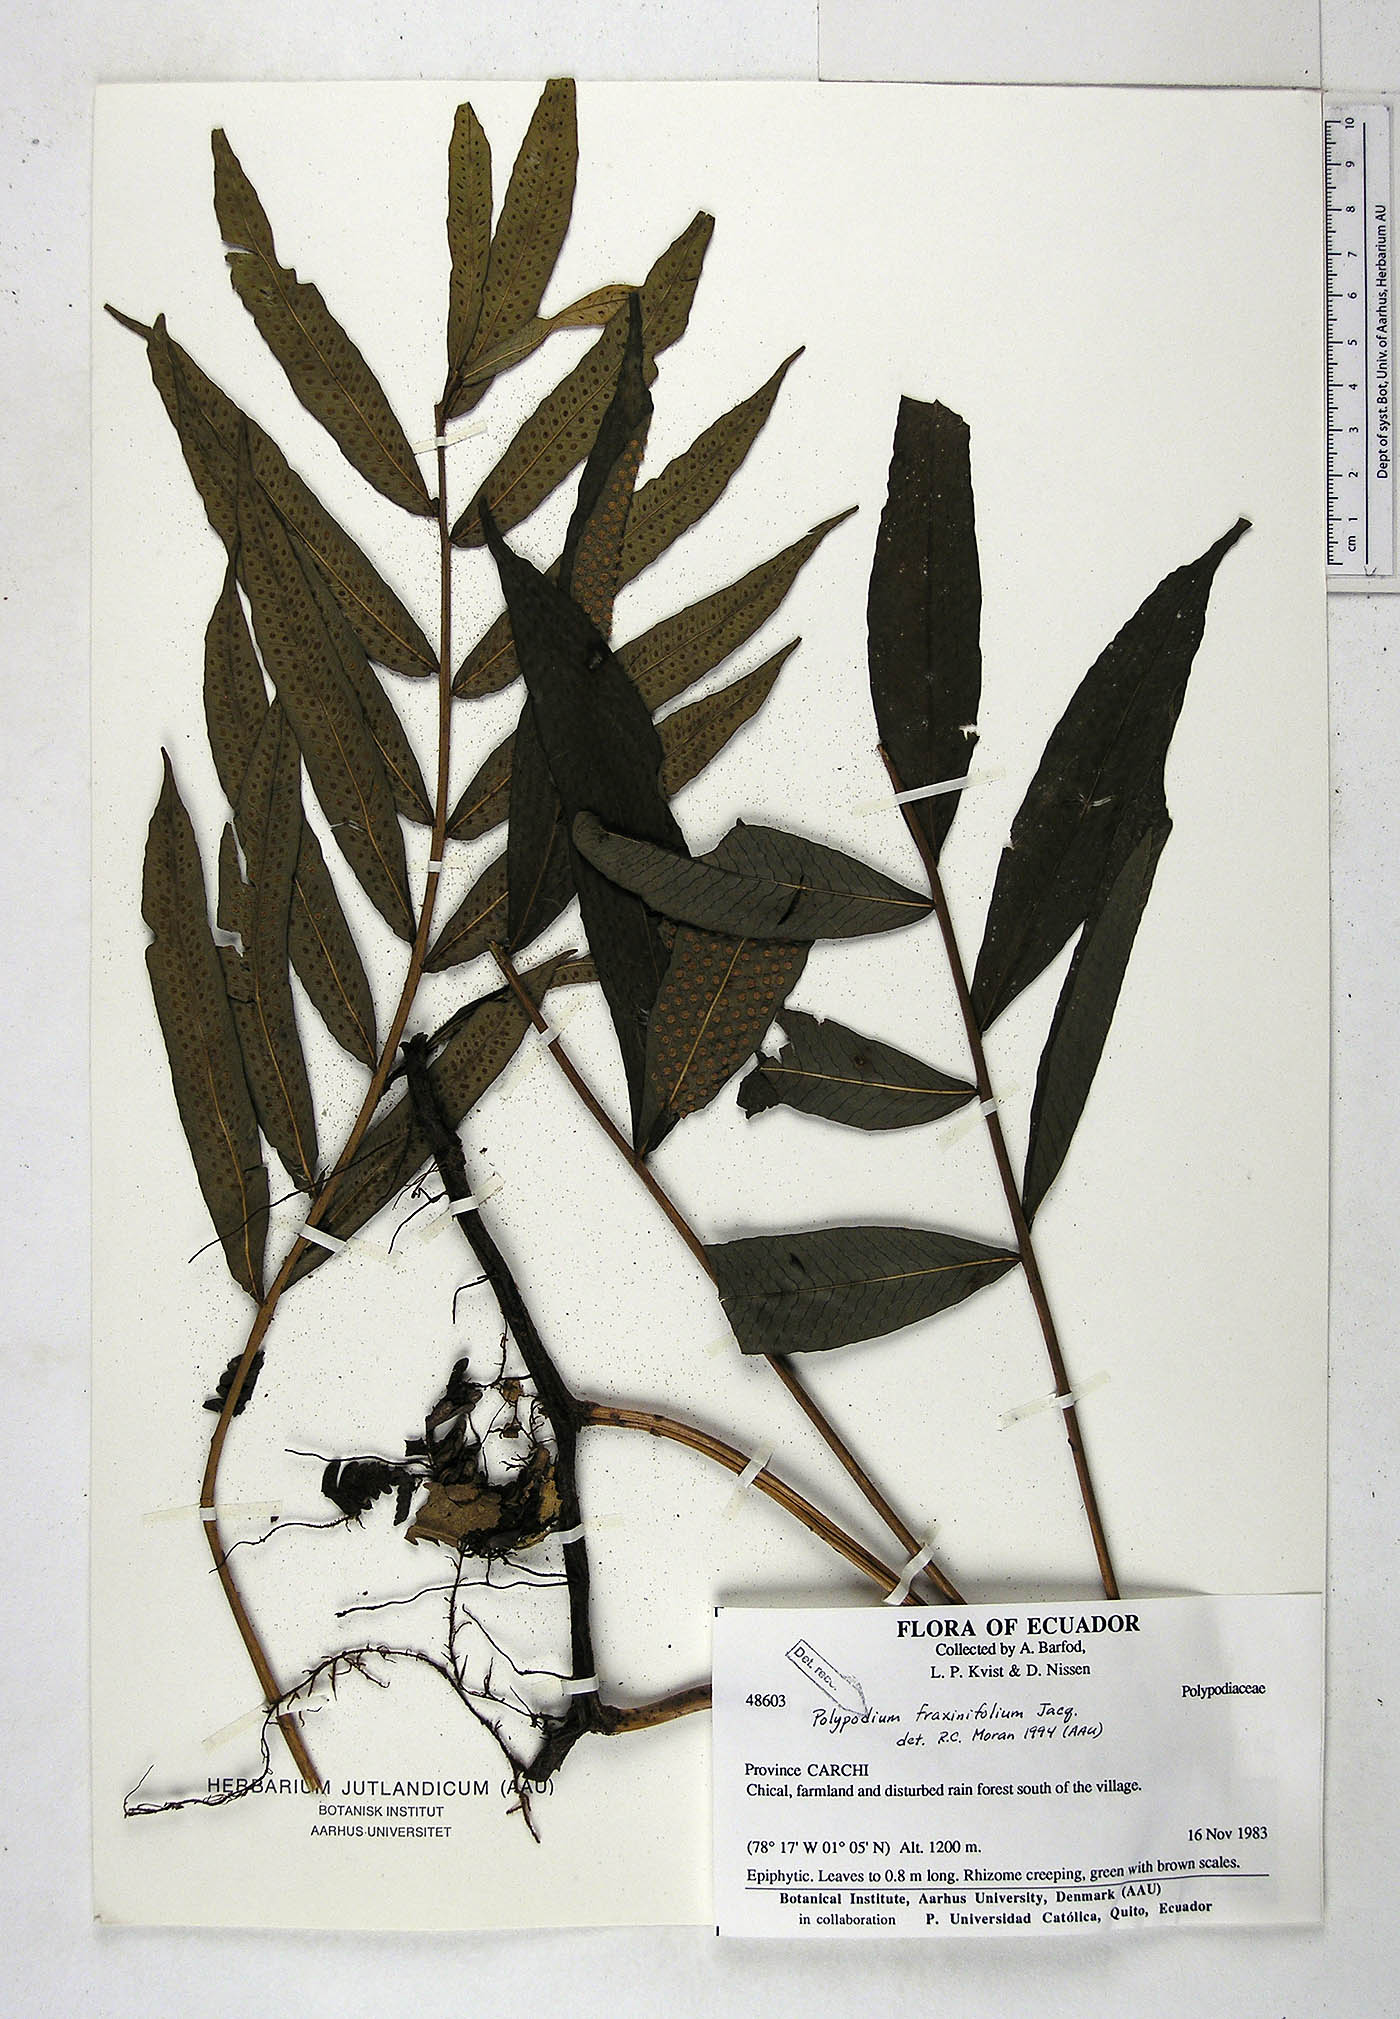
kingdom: Plantae
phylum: Tracheophyta
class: Polypodiopsida
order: Polypodiales
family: Polypodiaceae
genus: Serpocaulon
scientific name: Serpocaulon fraxinifolium
